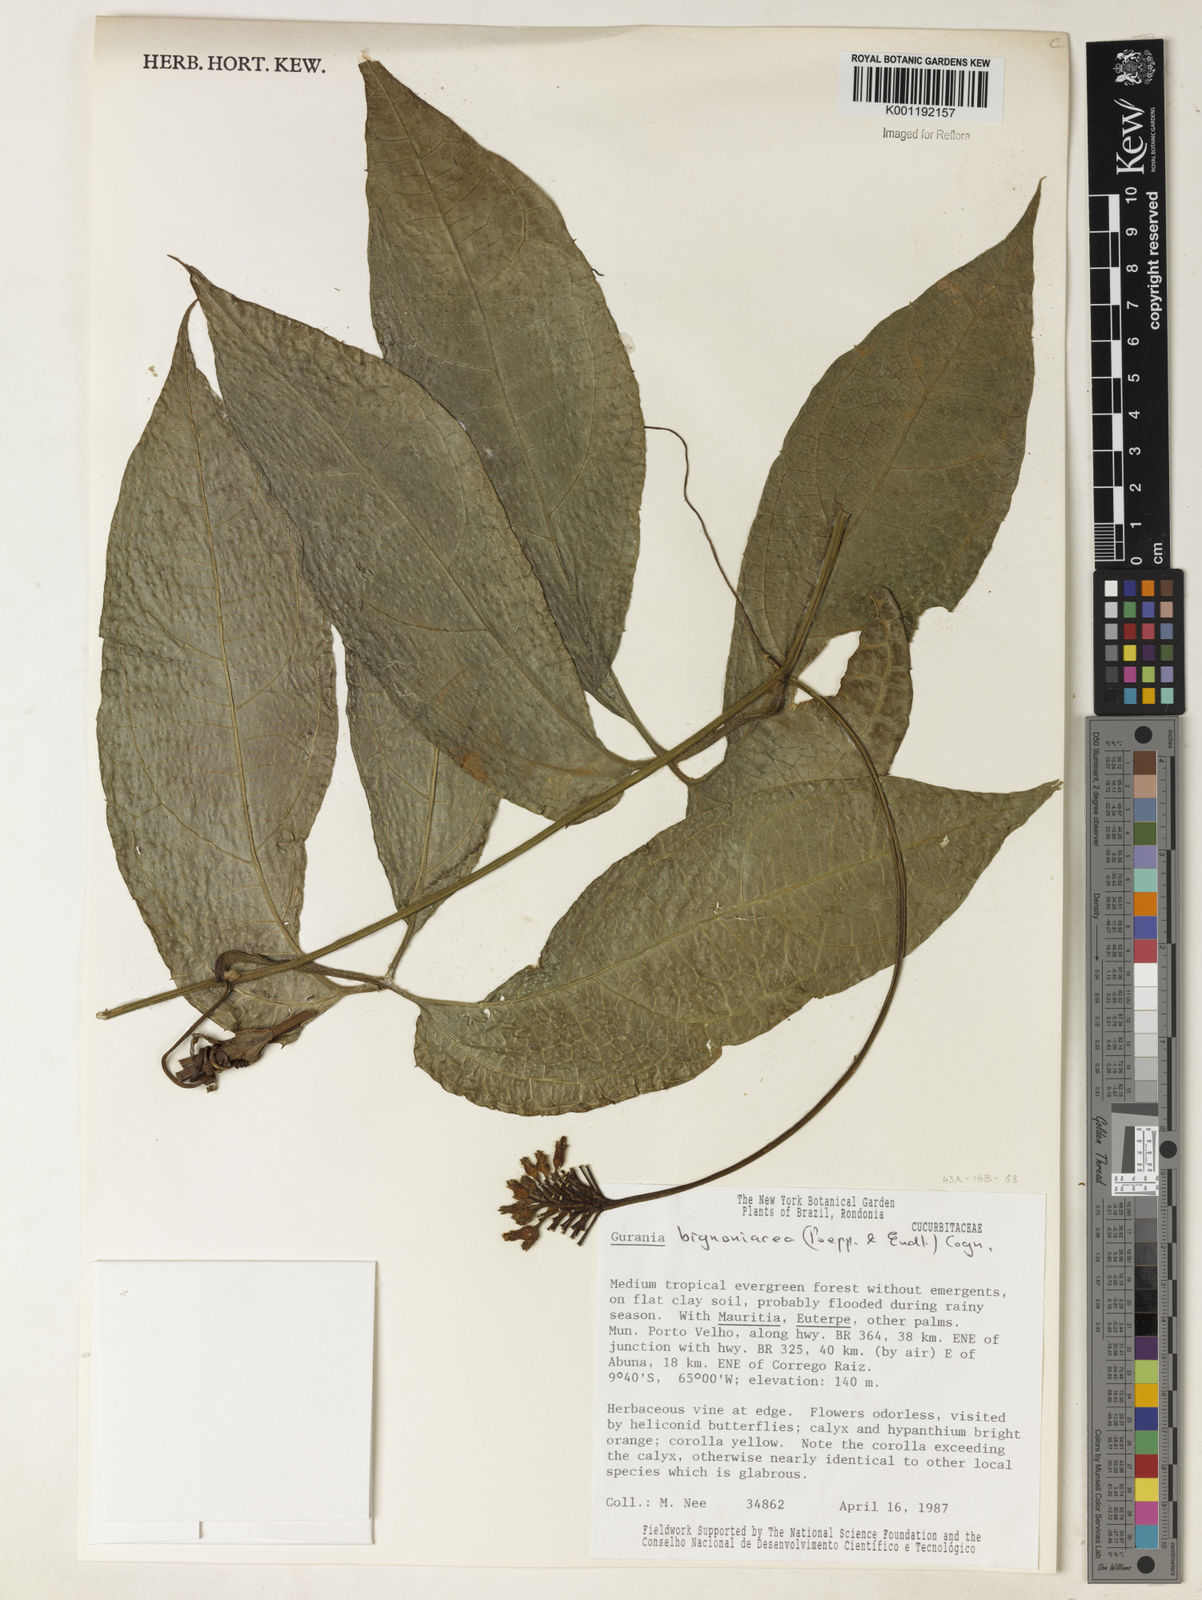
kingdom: Plantae
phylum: Tracheophyta
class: Magnoliopsida
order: Cucurbitales
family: Cucurbitaceae
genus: Gurania
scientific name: Gurania bignoniacea
